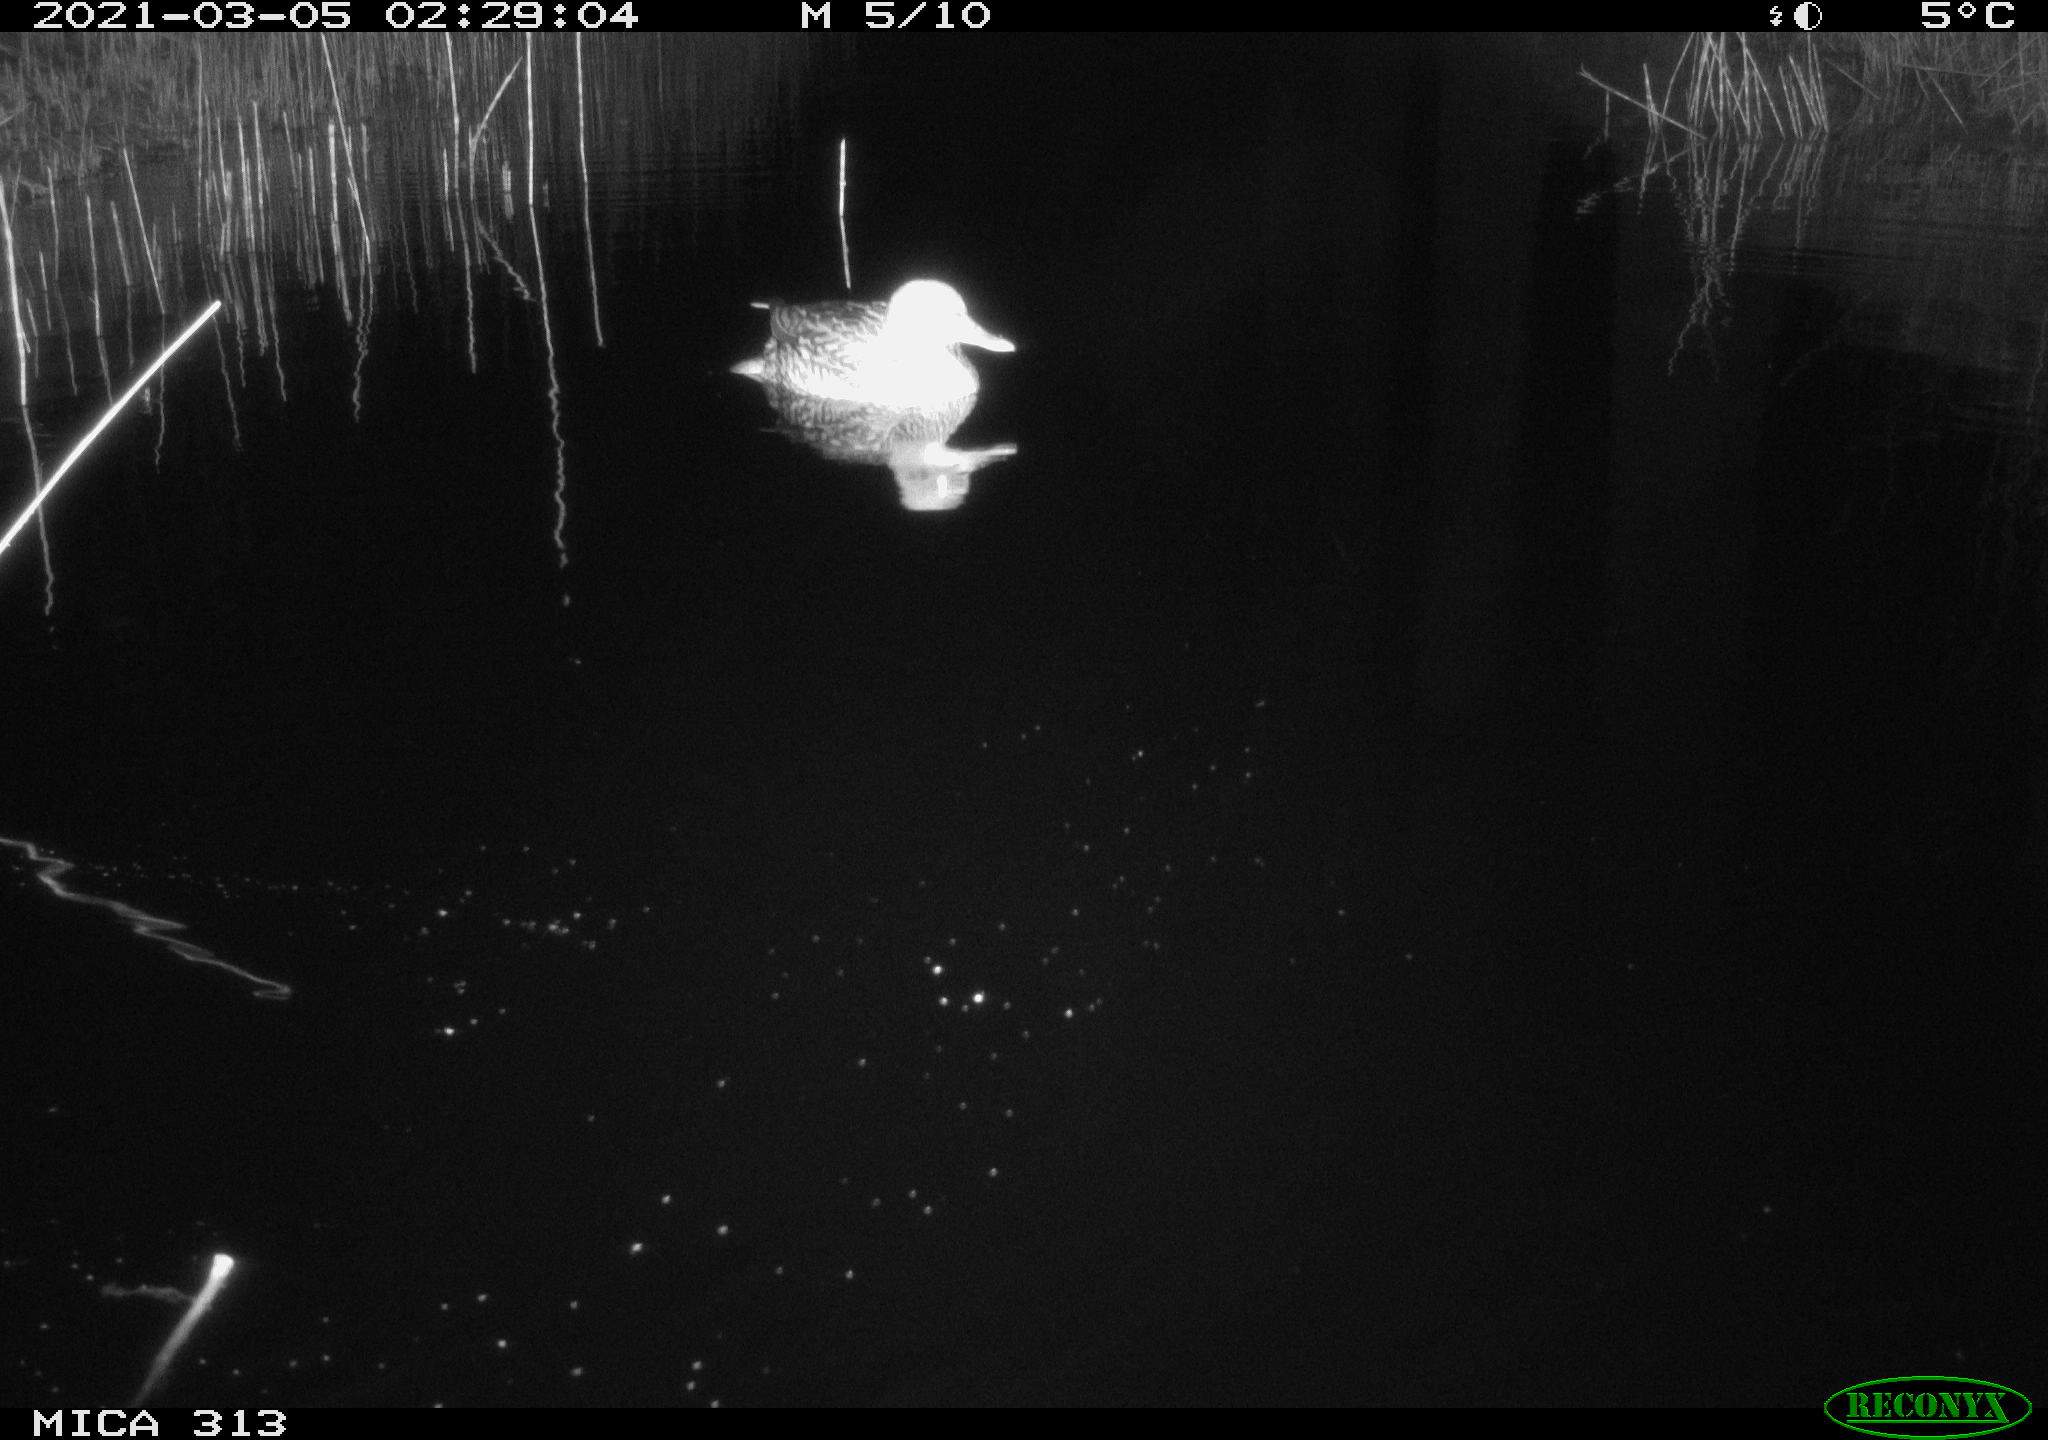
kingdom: Animalia
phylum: Chordata
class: Aves
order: Anseriformes
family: Anatidae
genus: Mareca
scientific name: Mareca strepera
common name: Gadwall
